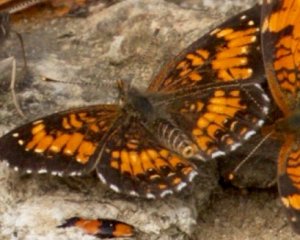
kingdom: Animalia
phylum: Arthropoda
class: Insecta
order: Lepidoptera
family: Nymphalidae
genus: Chlosyne
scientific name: Chlosyne harrisii
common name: Harris's Checkerspot
